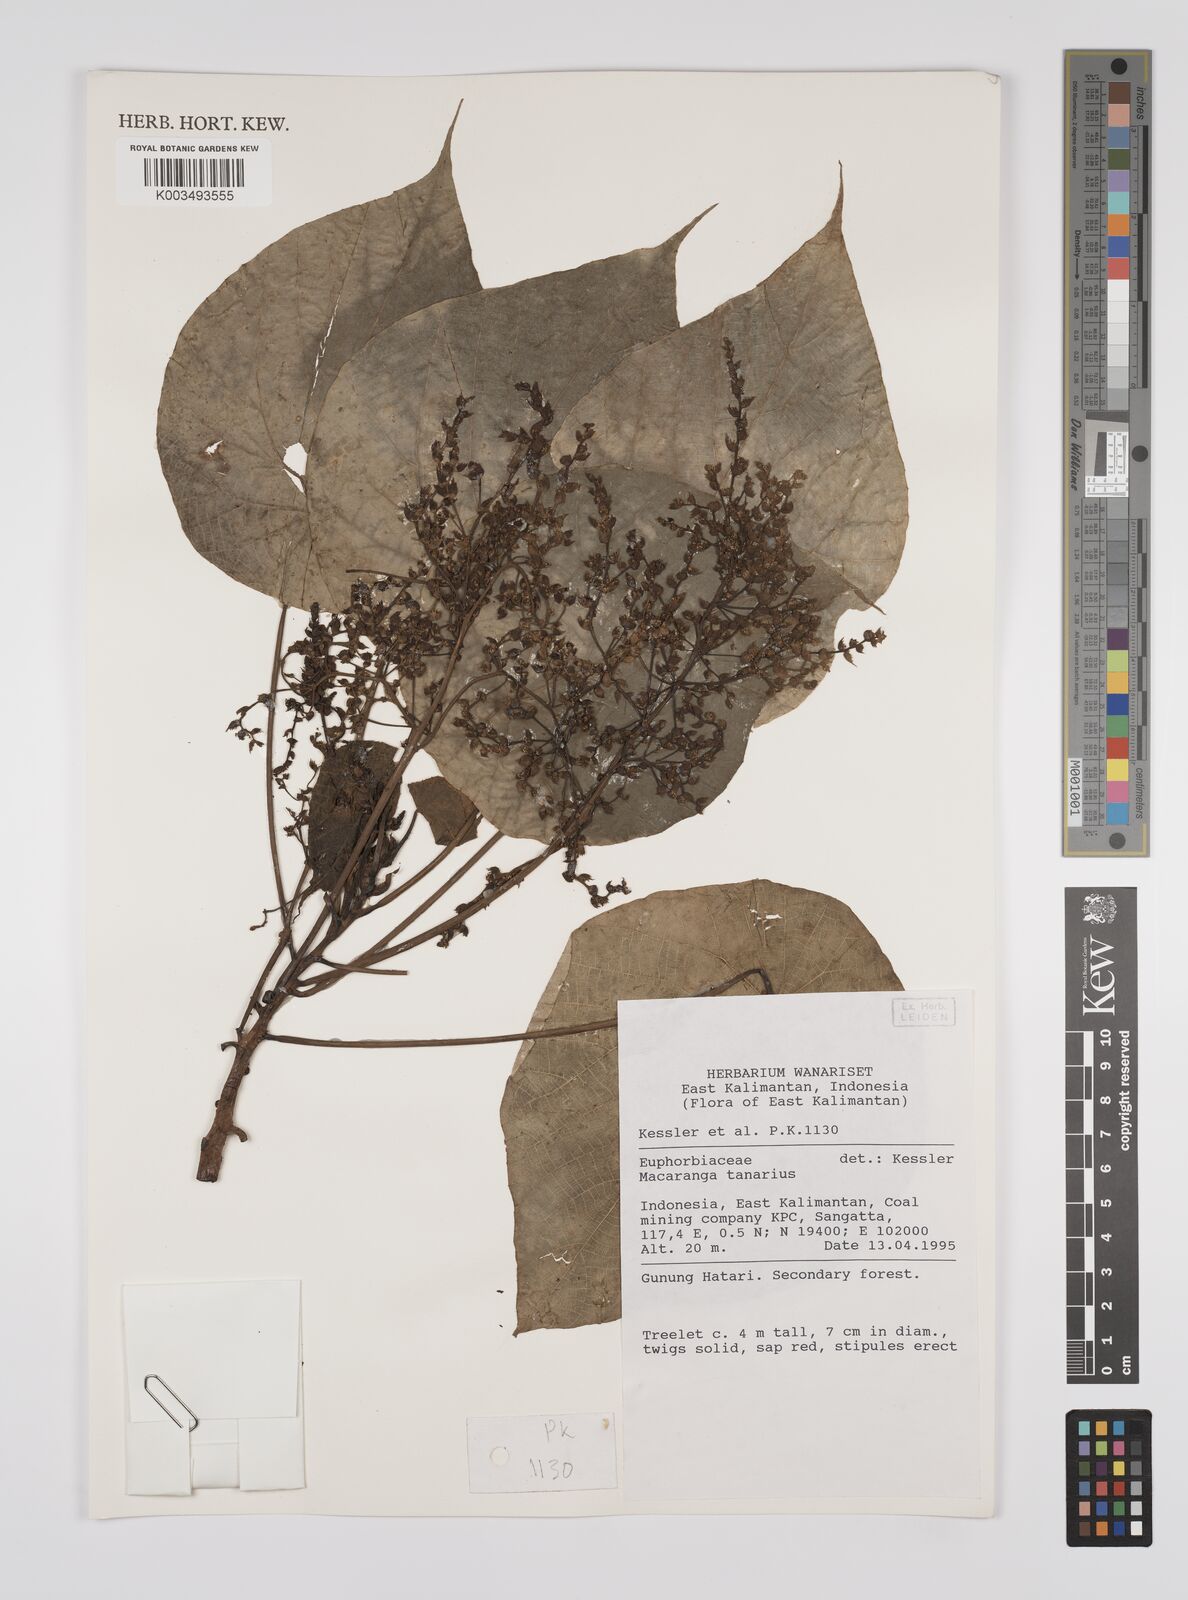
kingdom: Plantae
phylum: Tracheophyta
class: Magnoliopsida
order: Malpighiales
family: Euphorbiaceae
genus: Macaranga
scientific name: Macaranga tanarius
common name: Parasol leaf tree
